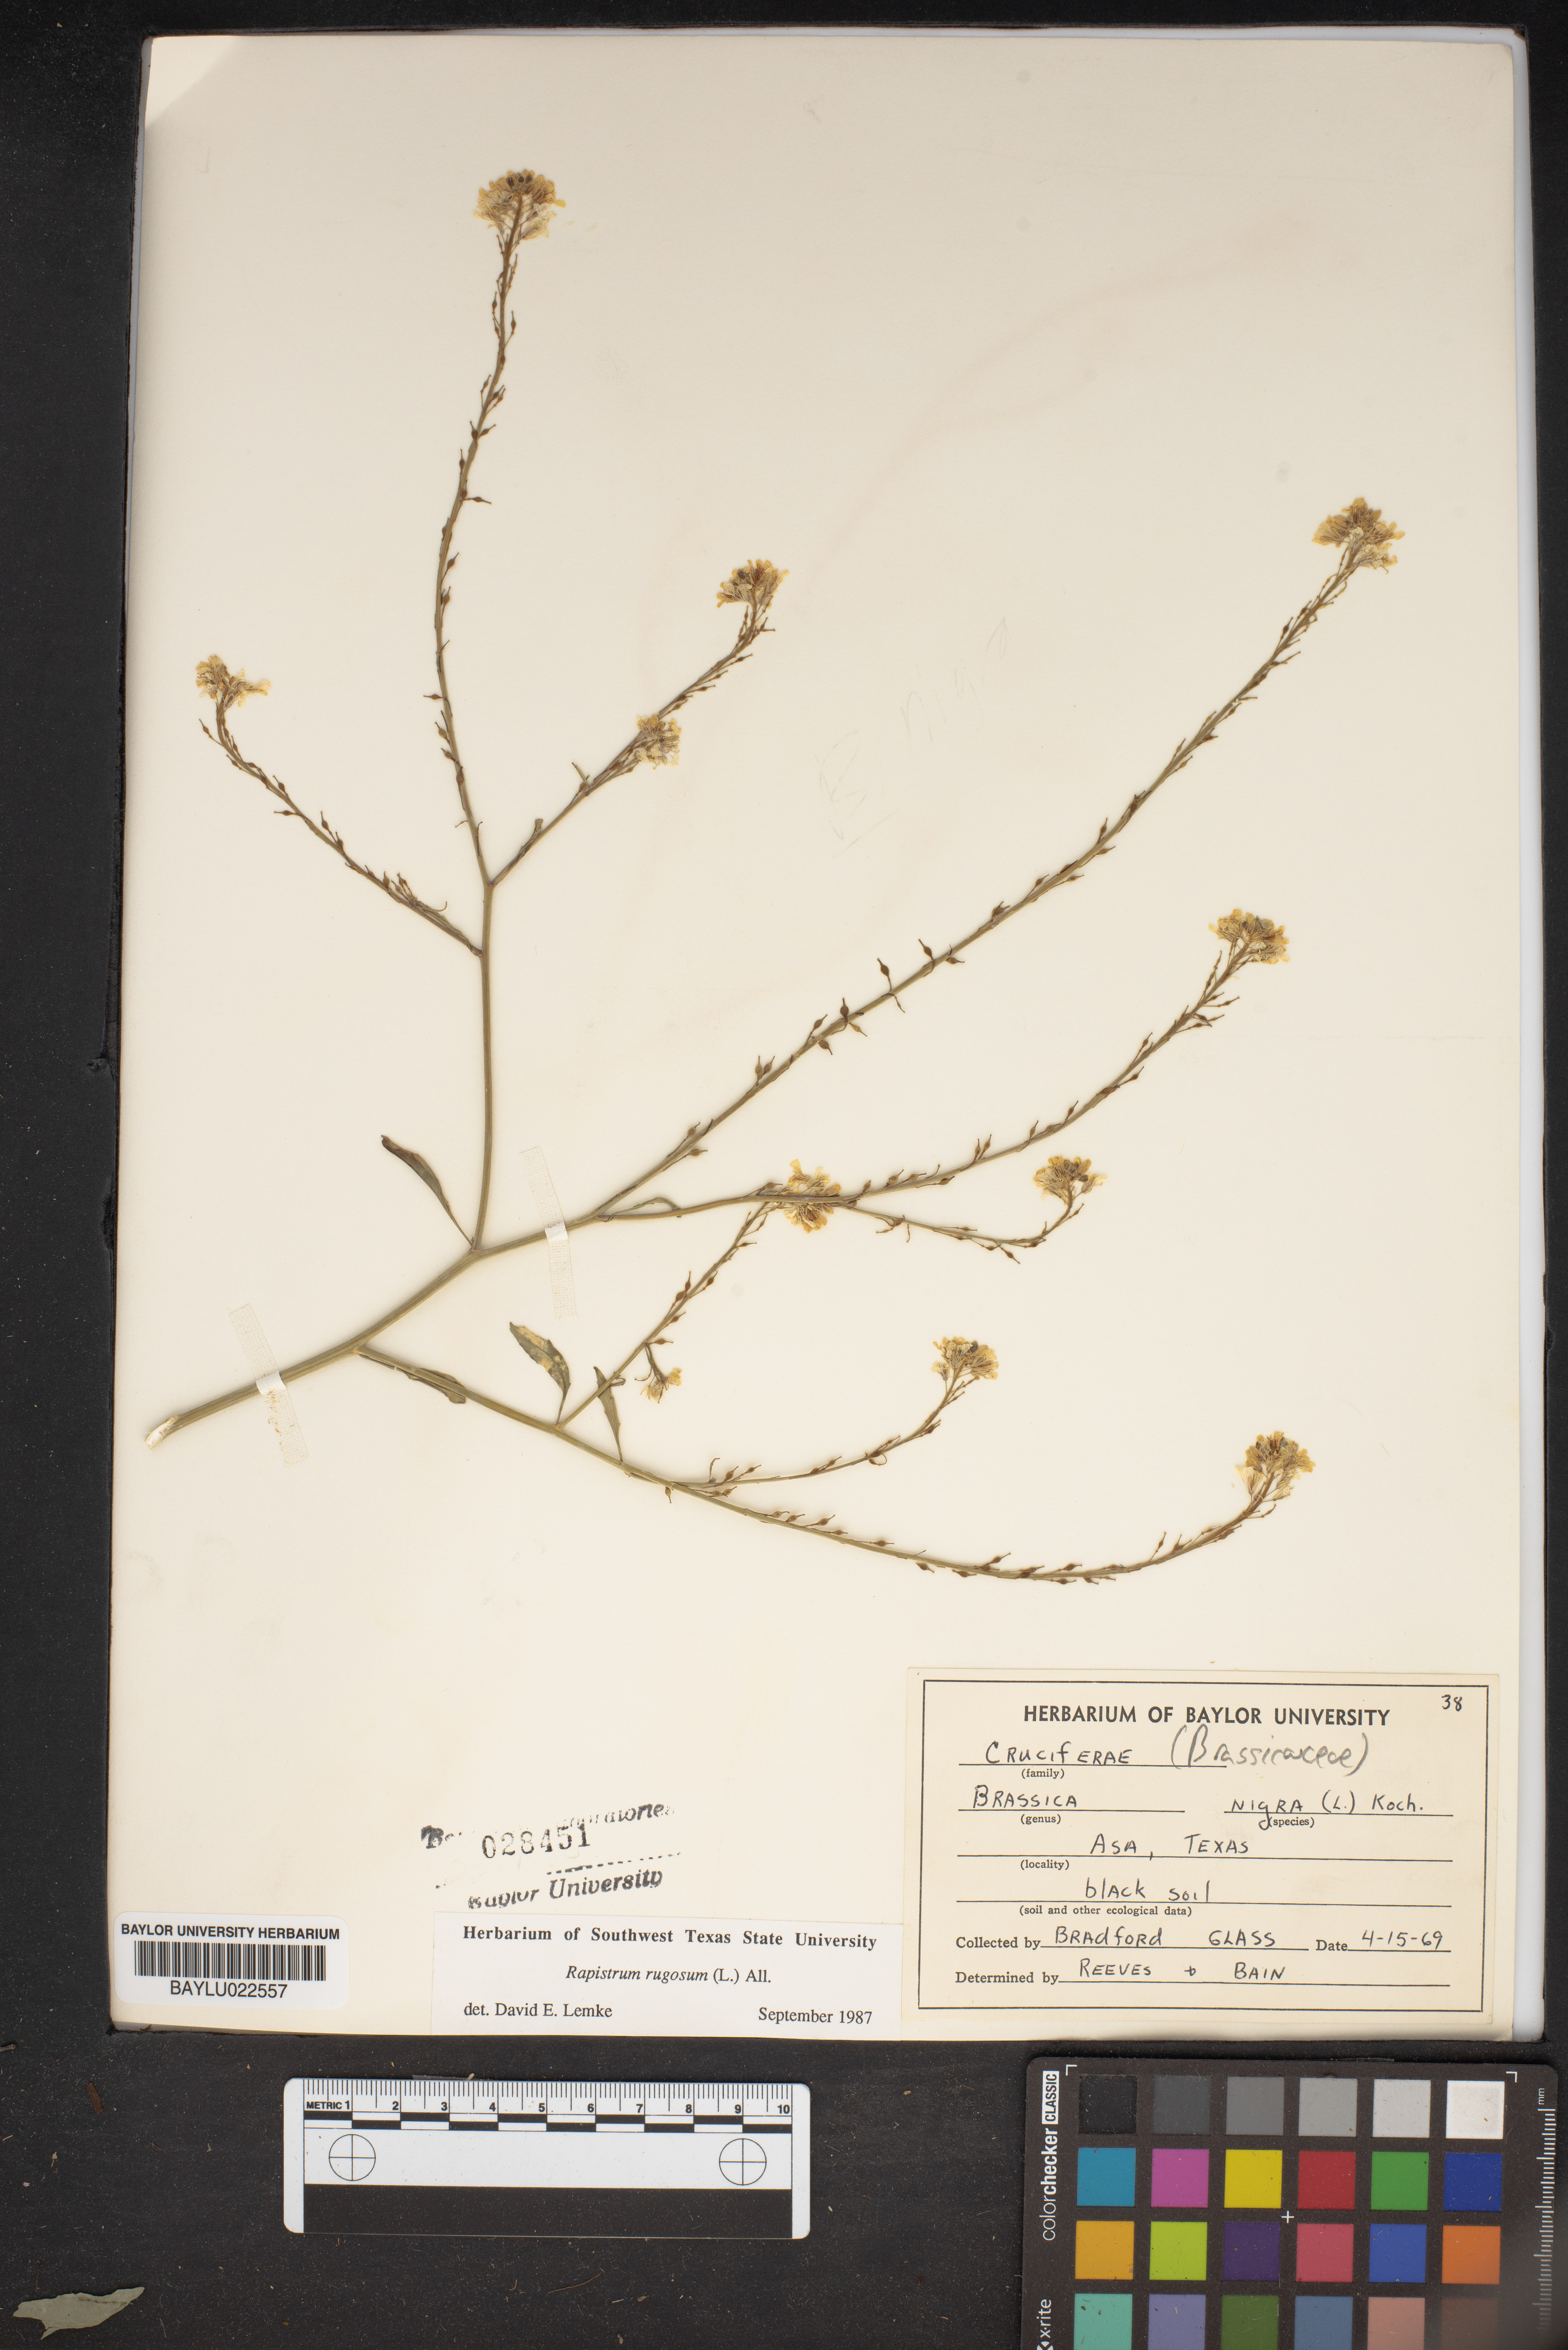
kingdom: Plantae
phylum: Tracheophyta
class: Magnoliopsida
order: Brassicales
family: Brassicaceae
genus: Rapistrum
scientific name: Rapistrum rugosum
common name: Annual bastardcabbage
